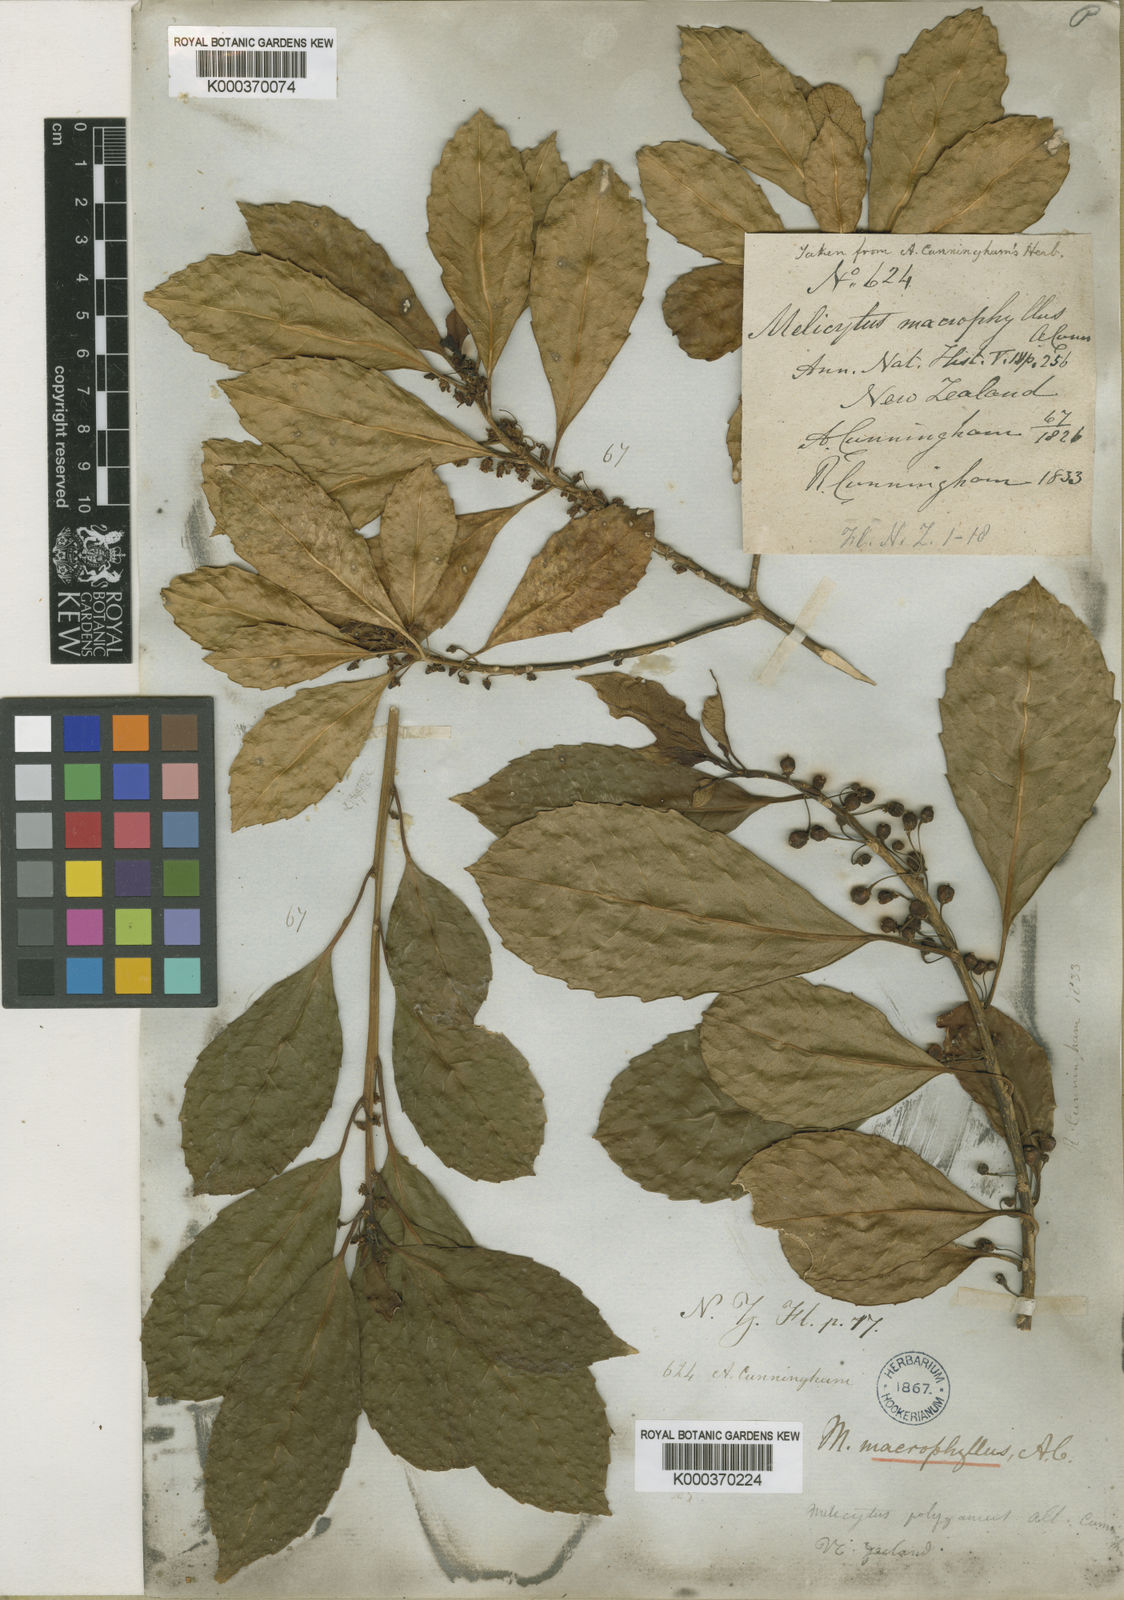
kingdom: Plantae
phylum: Tracheophyta
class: Magnoliopsida
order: Malpighiales
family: Violaceae
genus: Melicytus
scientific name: Melicytus macrophyllus
